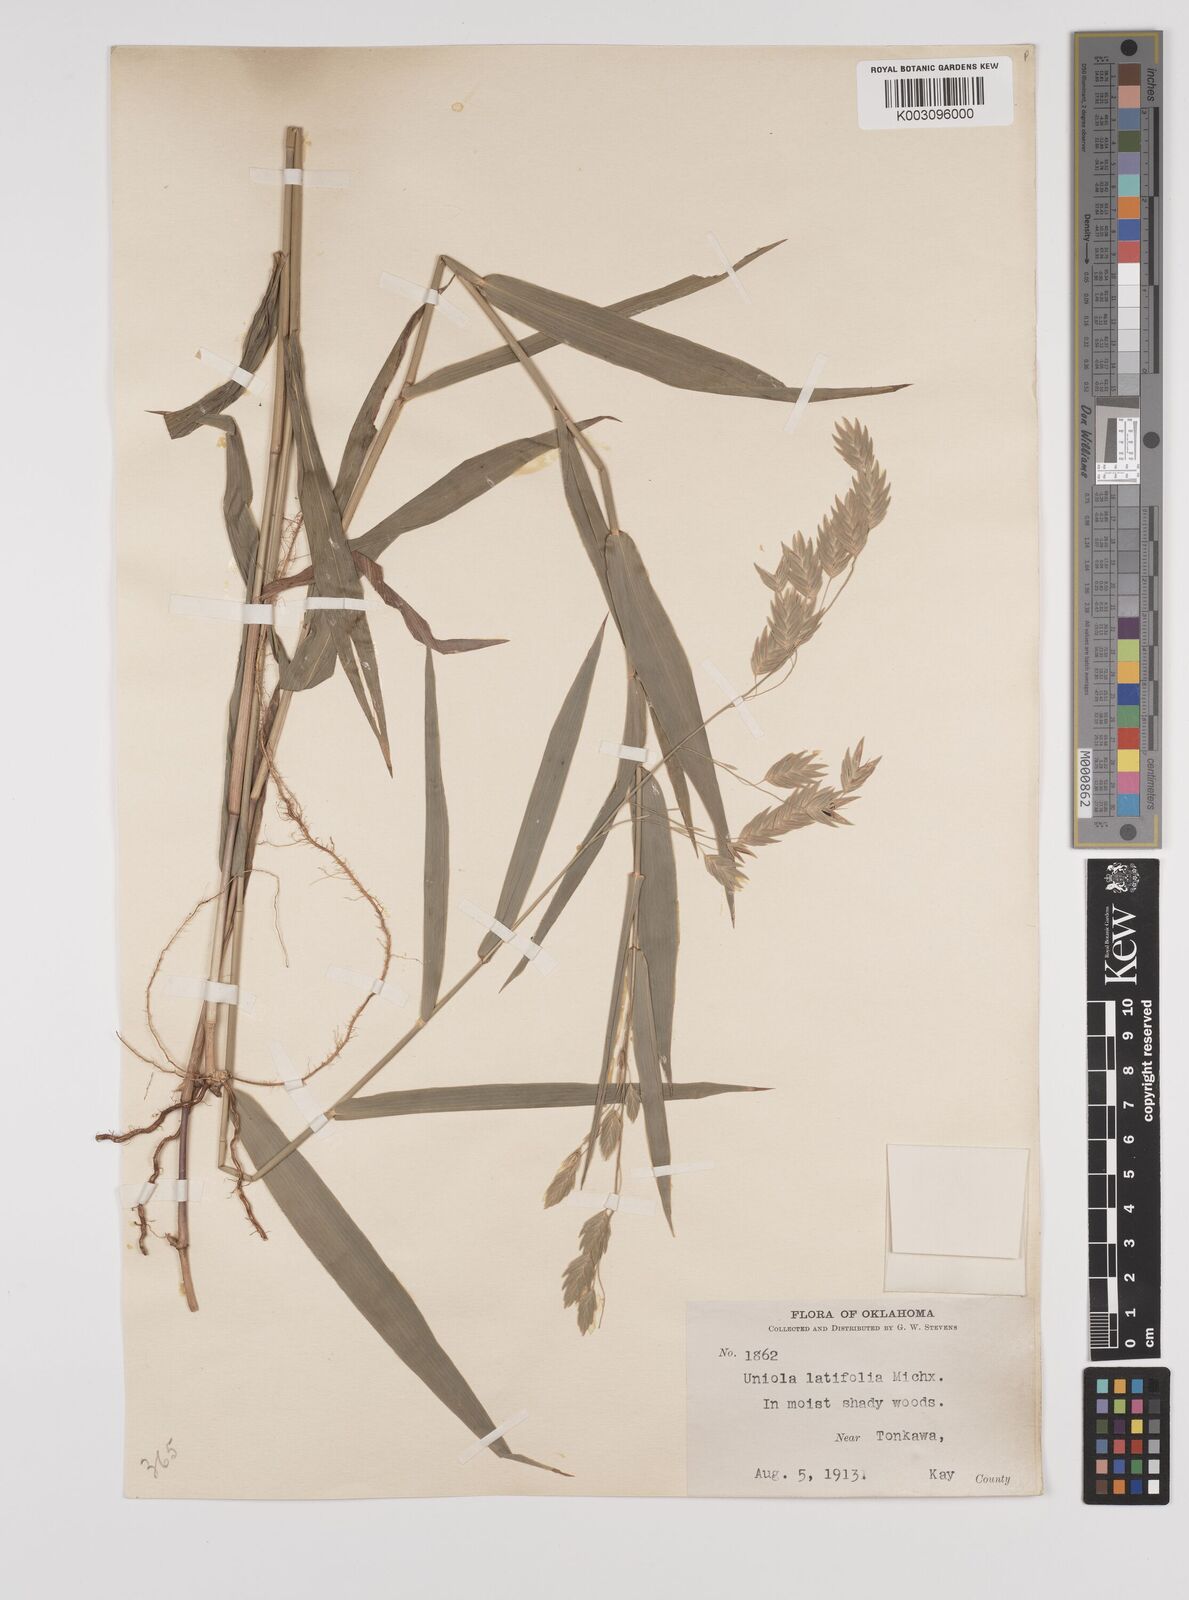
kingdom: Plantae
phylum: Tracheophyta
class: Liliopsida
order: Poales
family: Poaceae
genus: Chasmanthium
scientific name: Chasmanthium latifolium
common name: Broad-leaved chasmanthium
